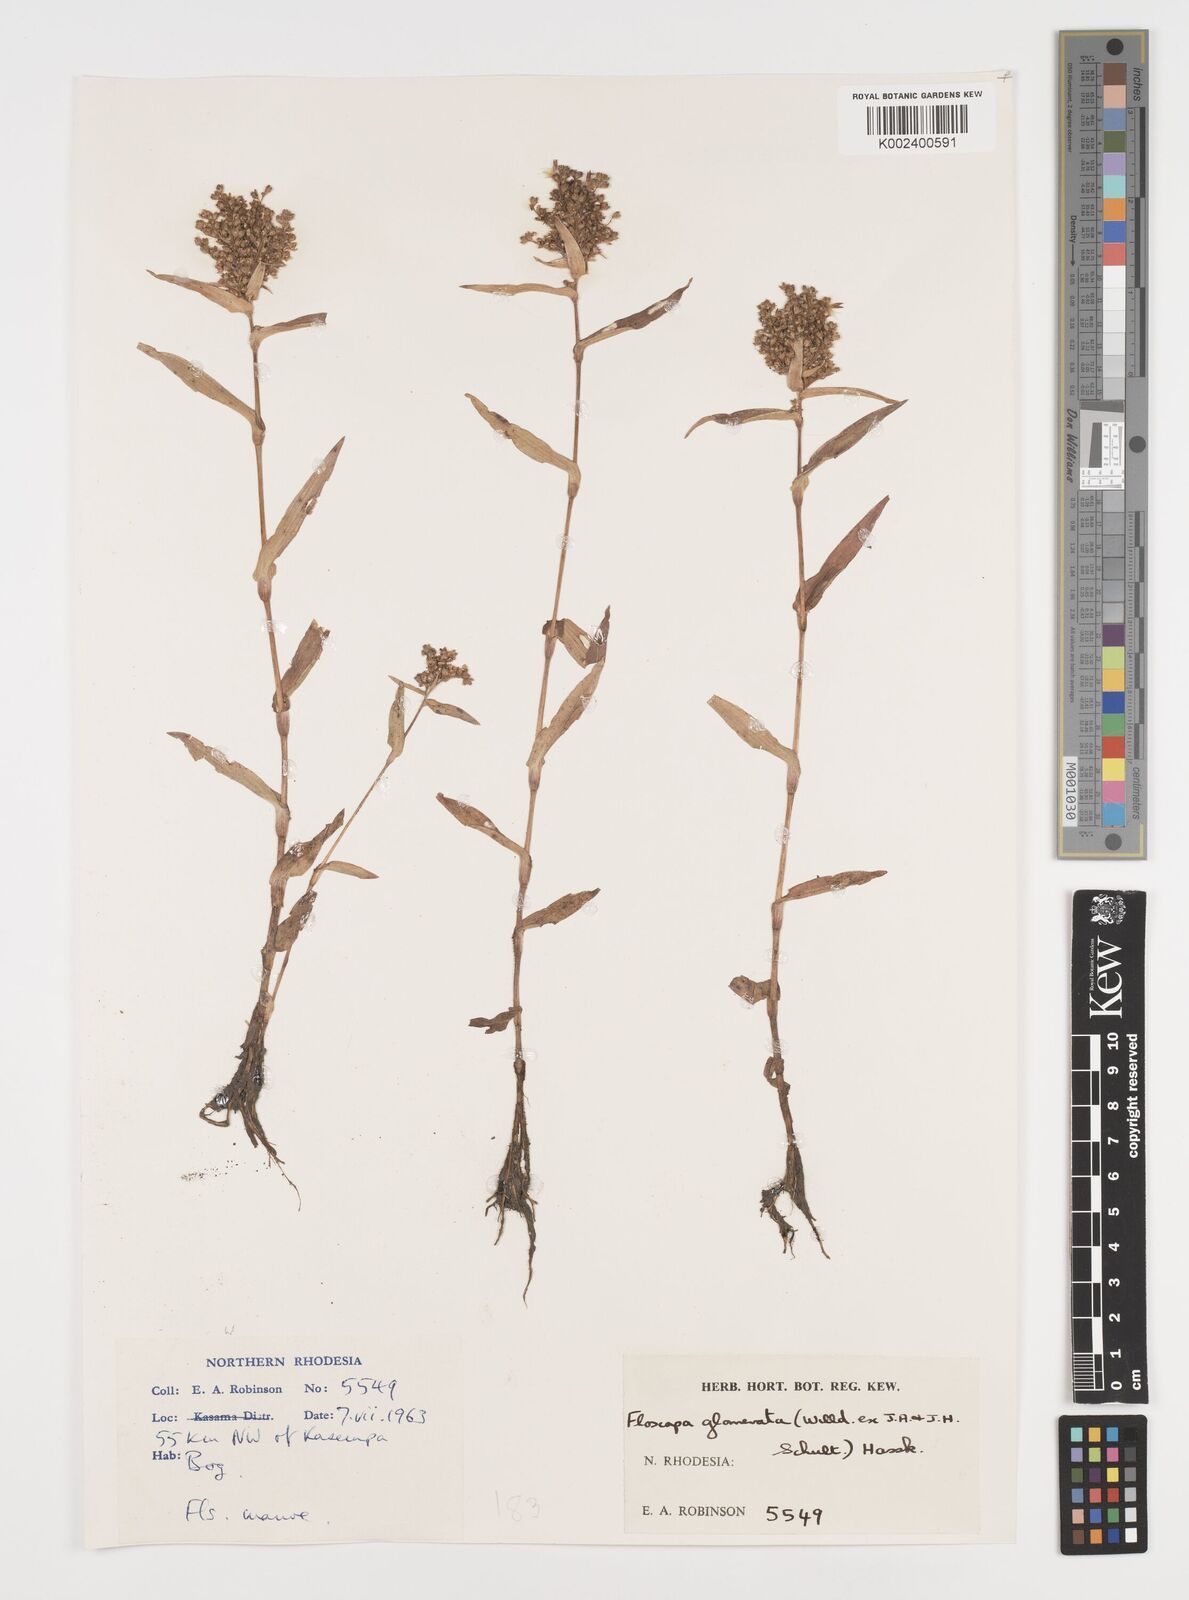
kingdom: Plantae
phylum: Tracheophyta
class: Liliopsida
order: Commelinales
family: Commelinaceae
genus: Floscopa
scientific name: Floscopa glomerata
